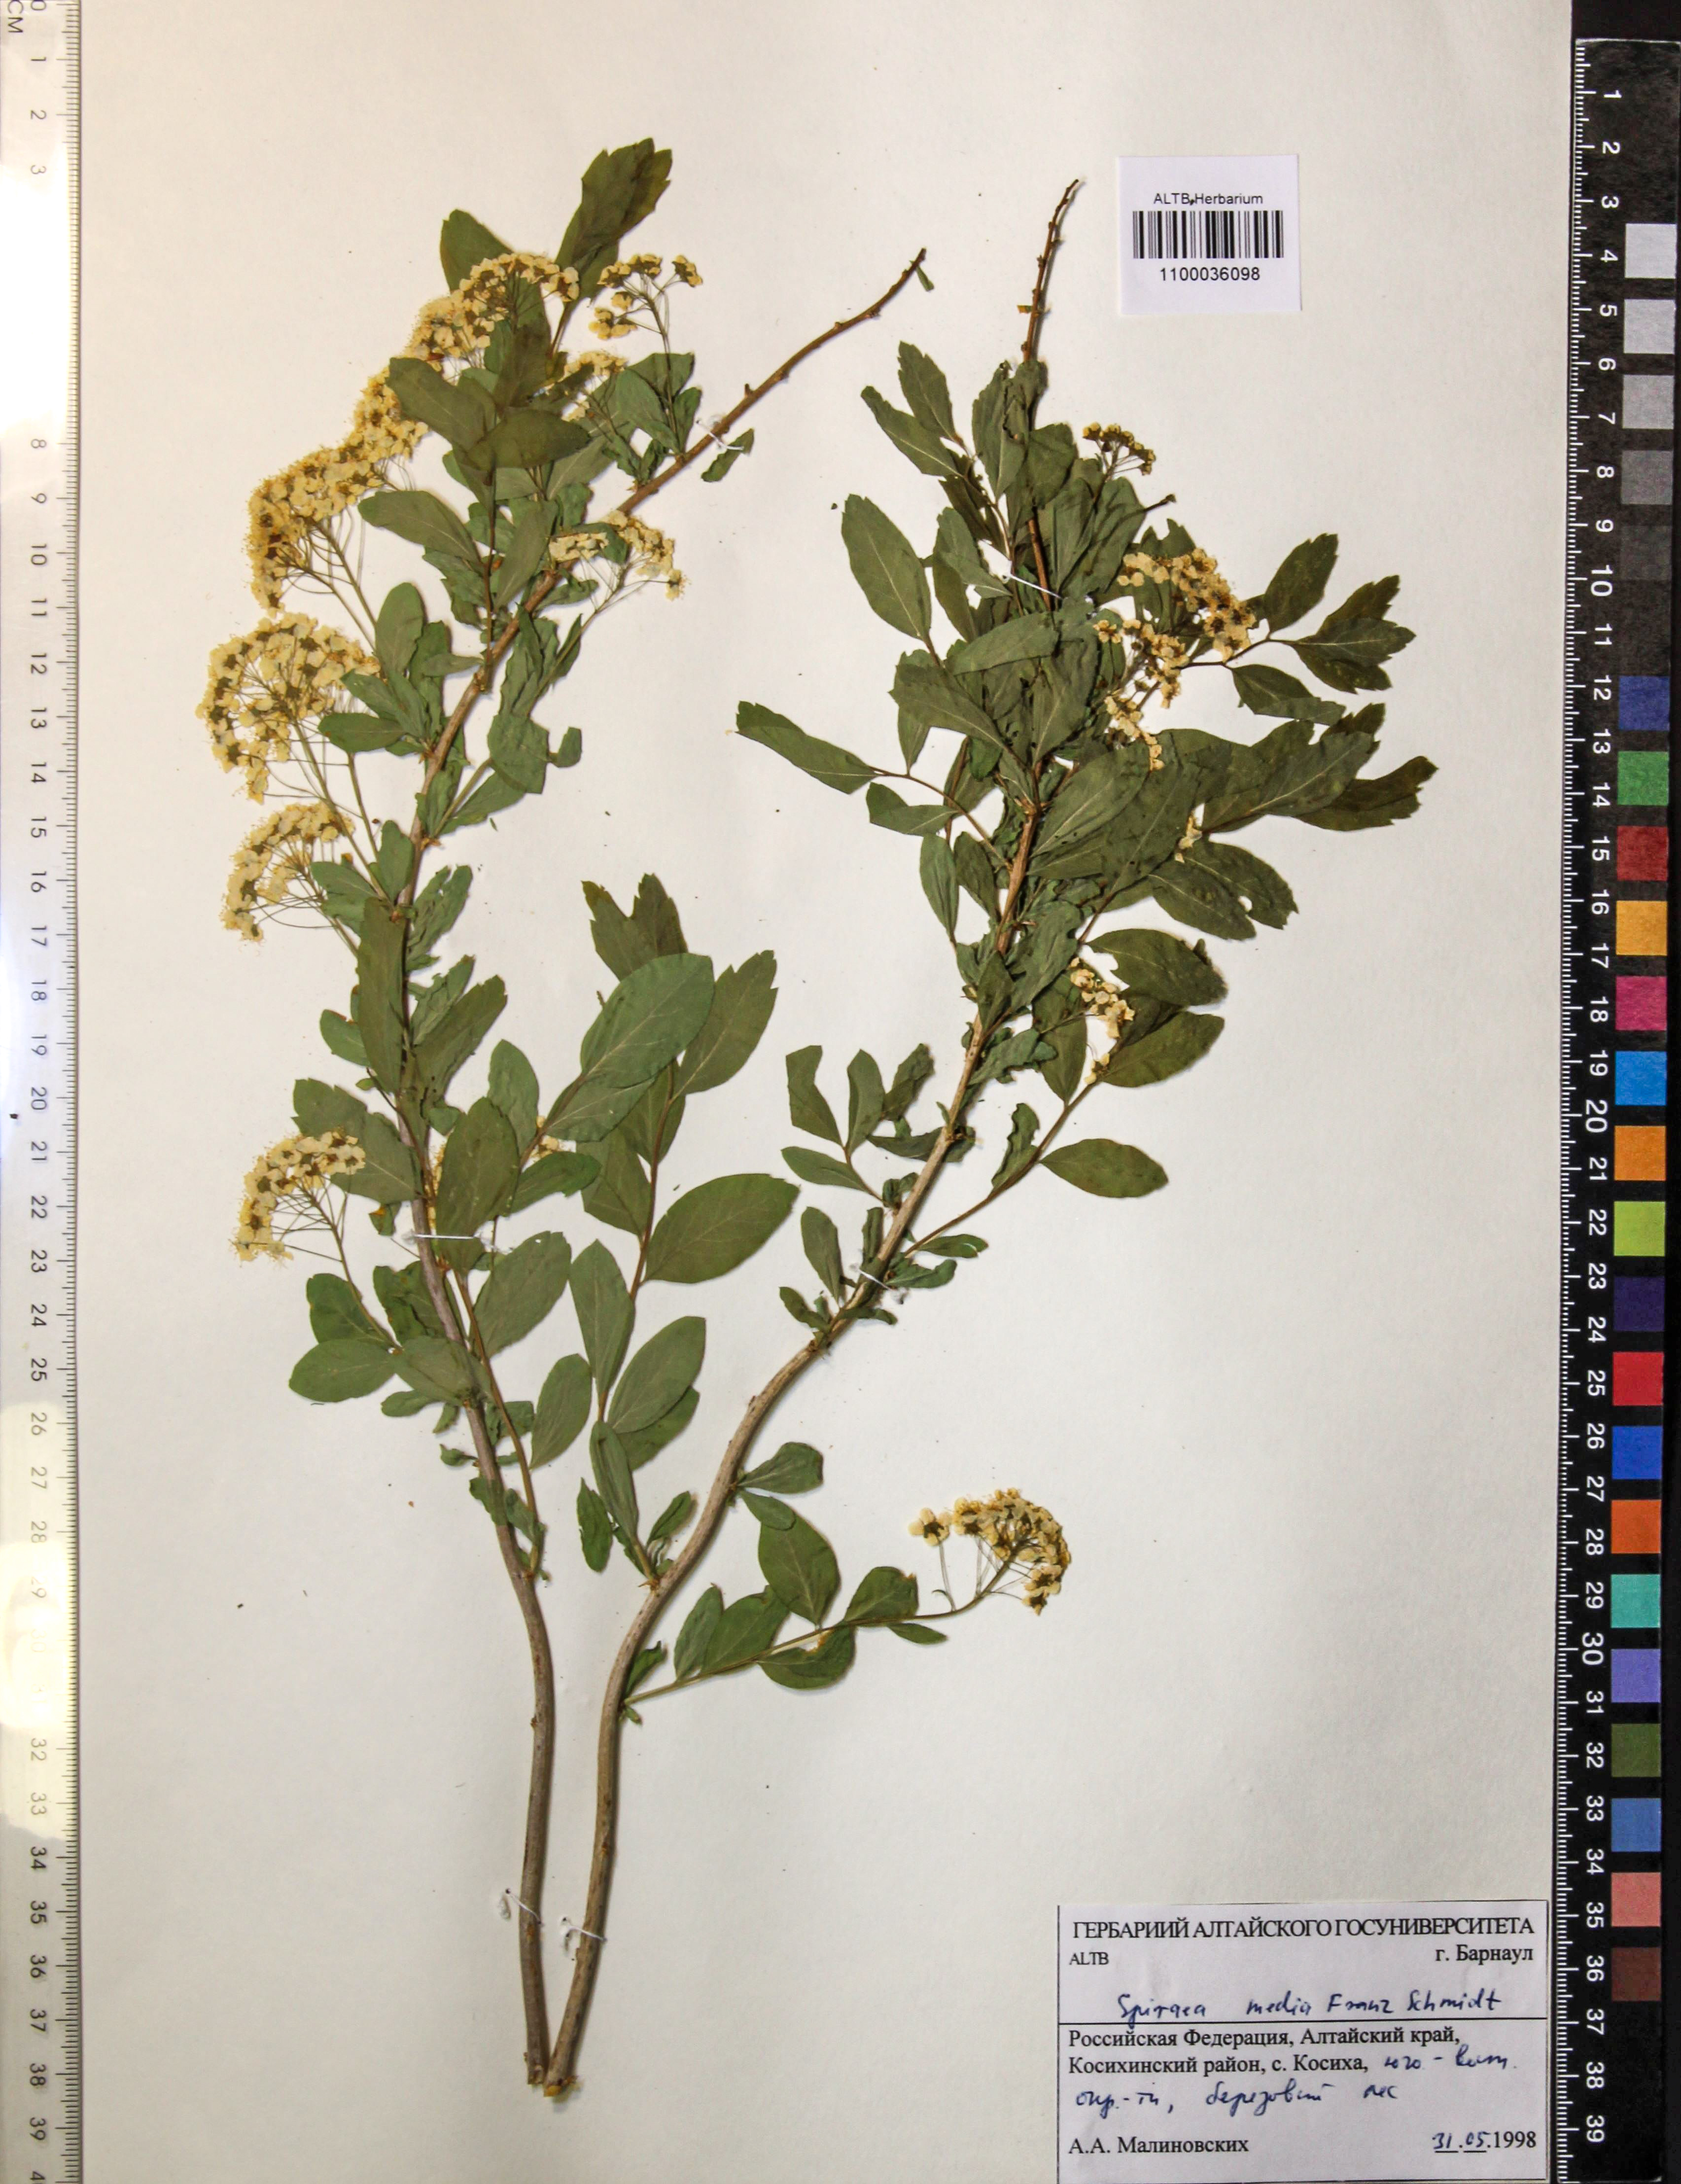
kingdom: Plantae
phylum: Tracheophyta
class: Magnoliopsida
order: Rosales
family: Rosaceae
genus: Spiraea
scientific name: Spiraea media
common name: Russian spiraea
